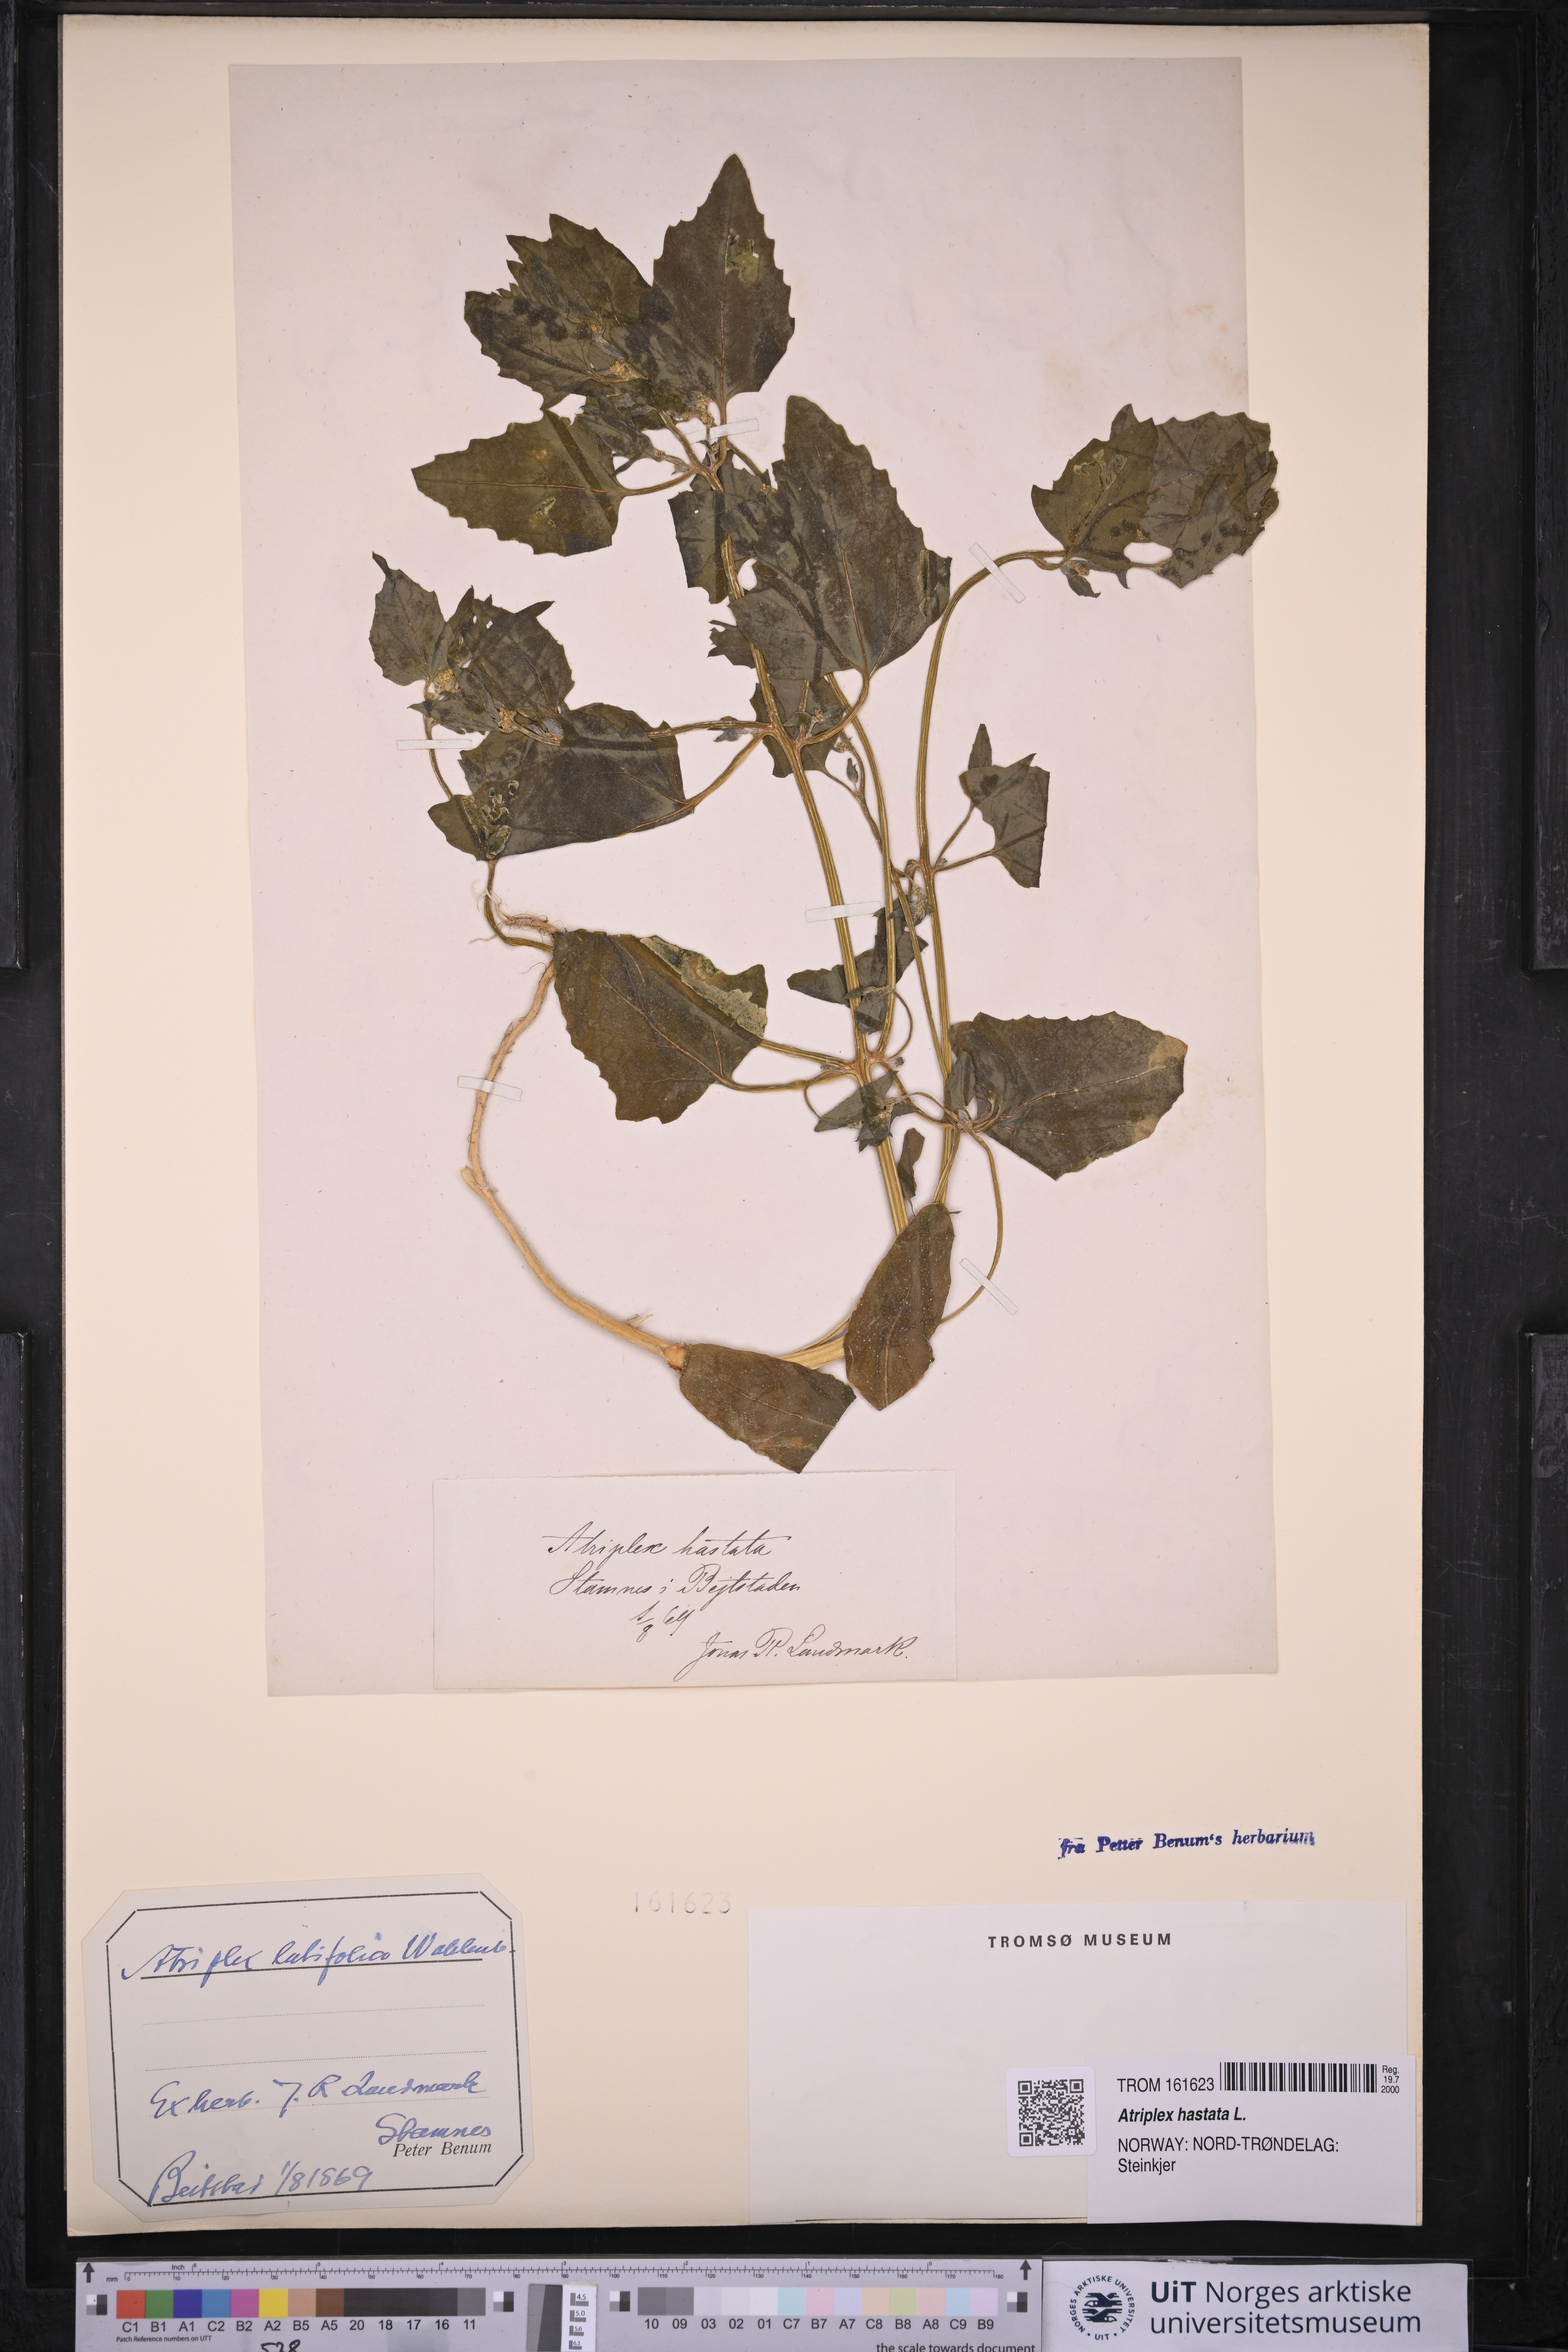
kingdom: Plantae
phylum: Tracheophyta
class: Magnoliopsida
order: Caryophyllales
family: Amaranthaceae
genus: Atriplex
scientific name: Atriplex prostrata
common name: Spear-leaved orache
